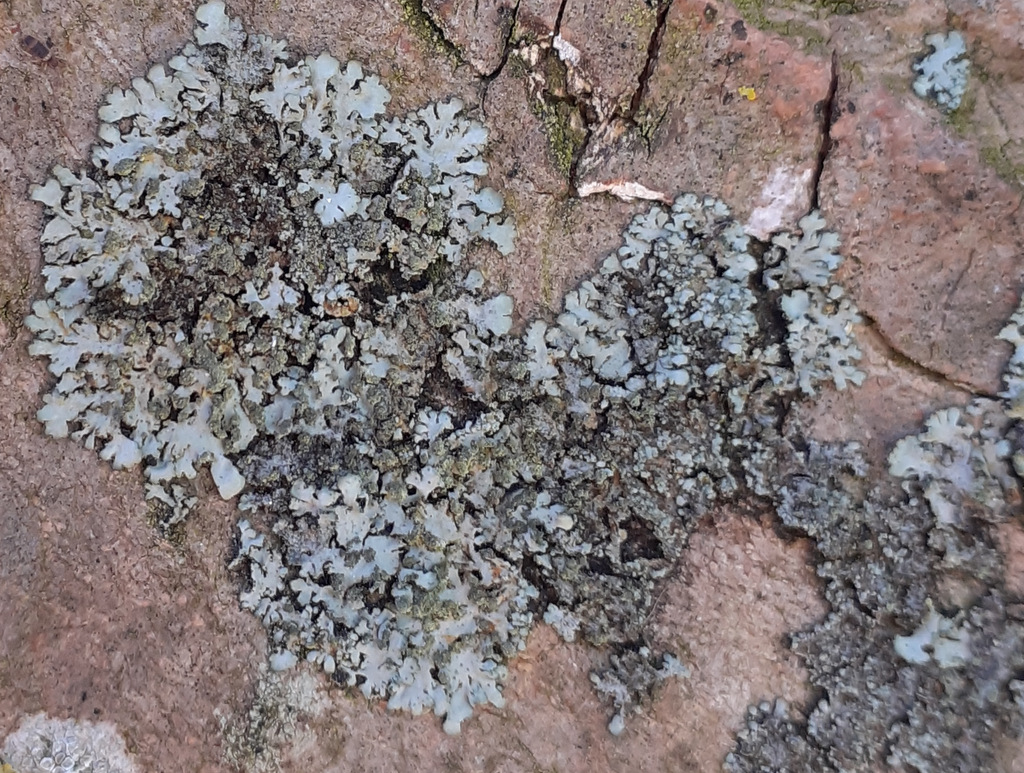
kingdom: Fungi
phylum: Ascomycota
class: Lecanoromycetes
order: Caliciales
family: Physciaceae
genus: Phaeophyscia
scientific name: Phaeophyscia orbicularis
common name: grågrøn rosetlav
